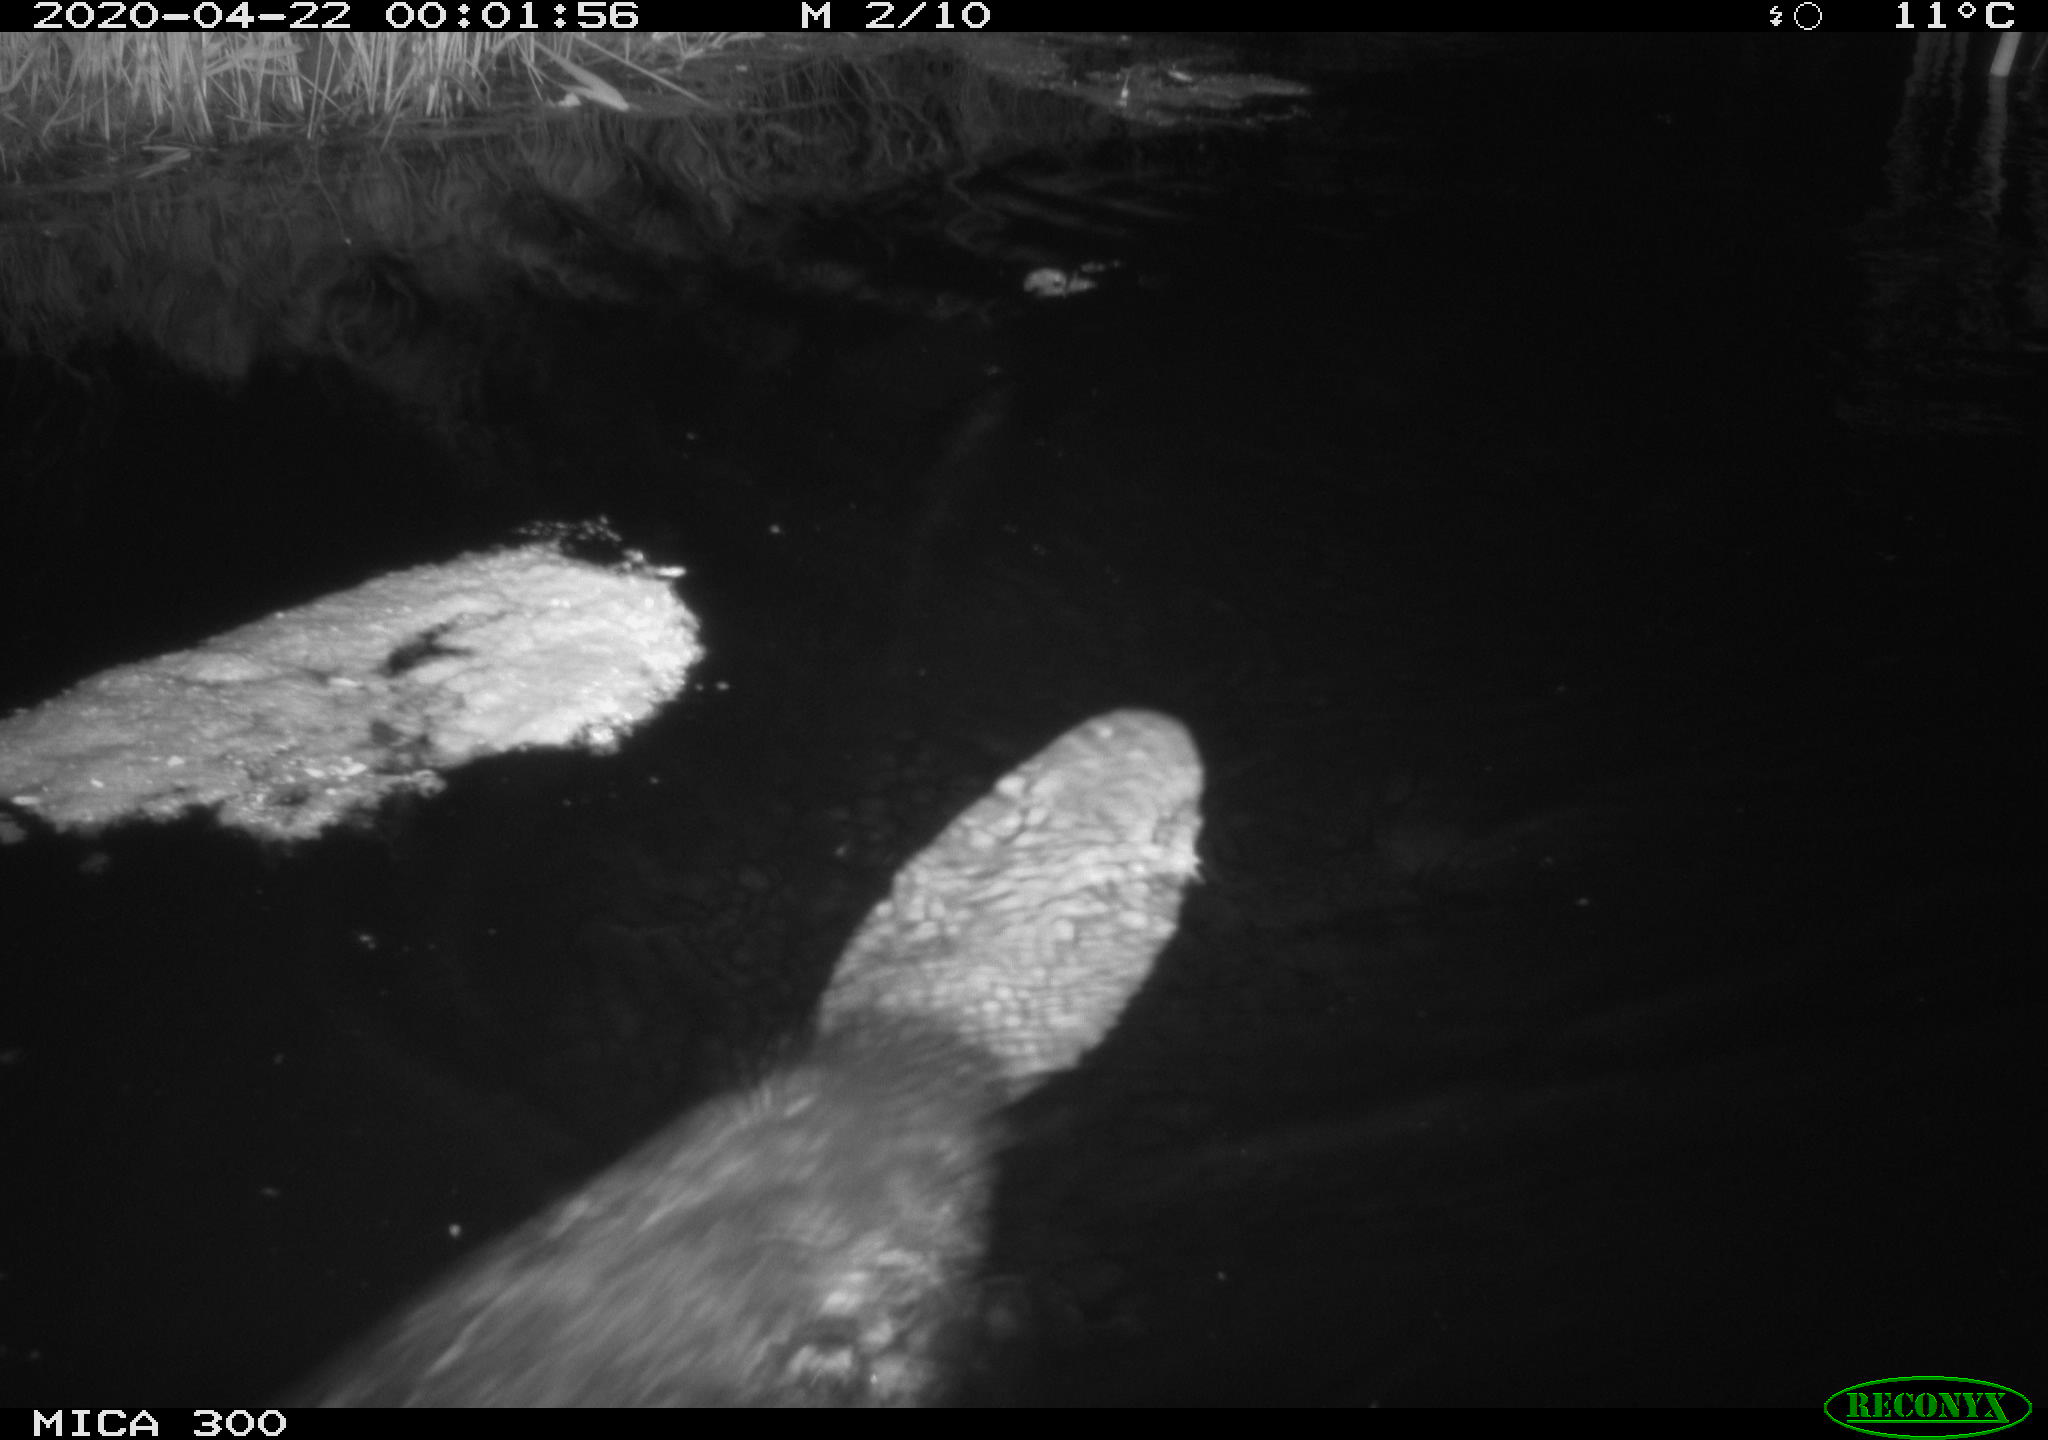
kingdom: Animalia
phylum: Chordata
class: Mammalia
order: Rodentia
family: Castoridae
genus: Castor
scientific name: Castor fiber
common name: Eurasian beaver
